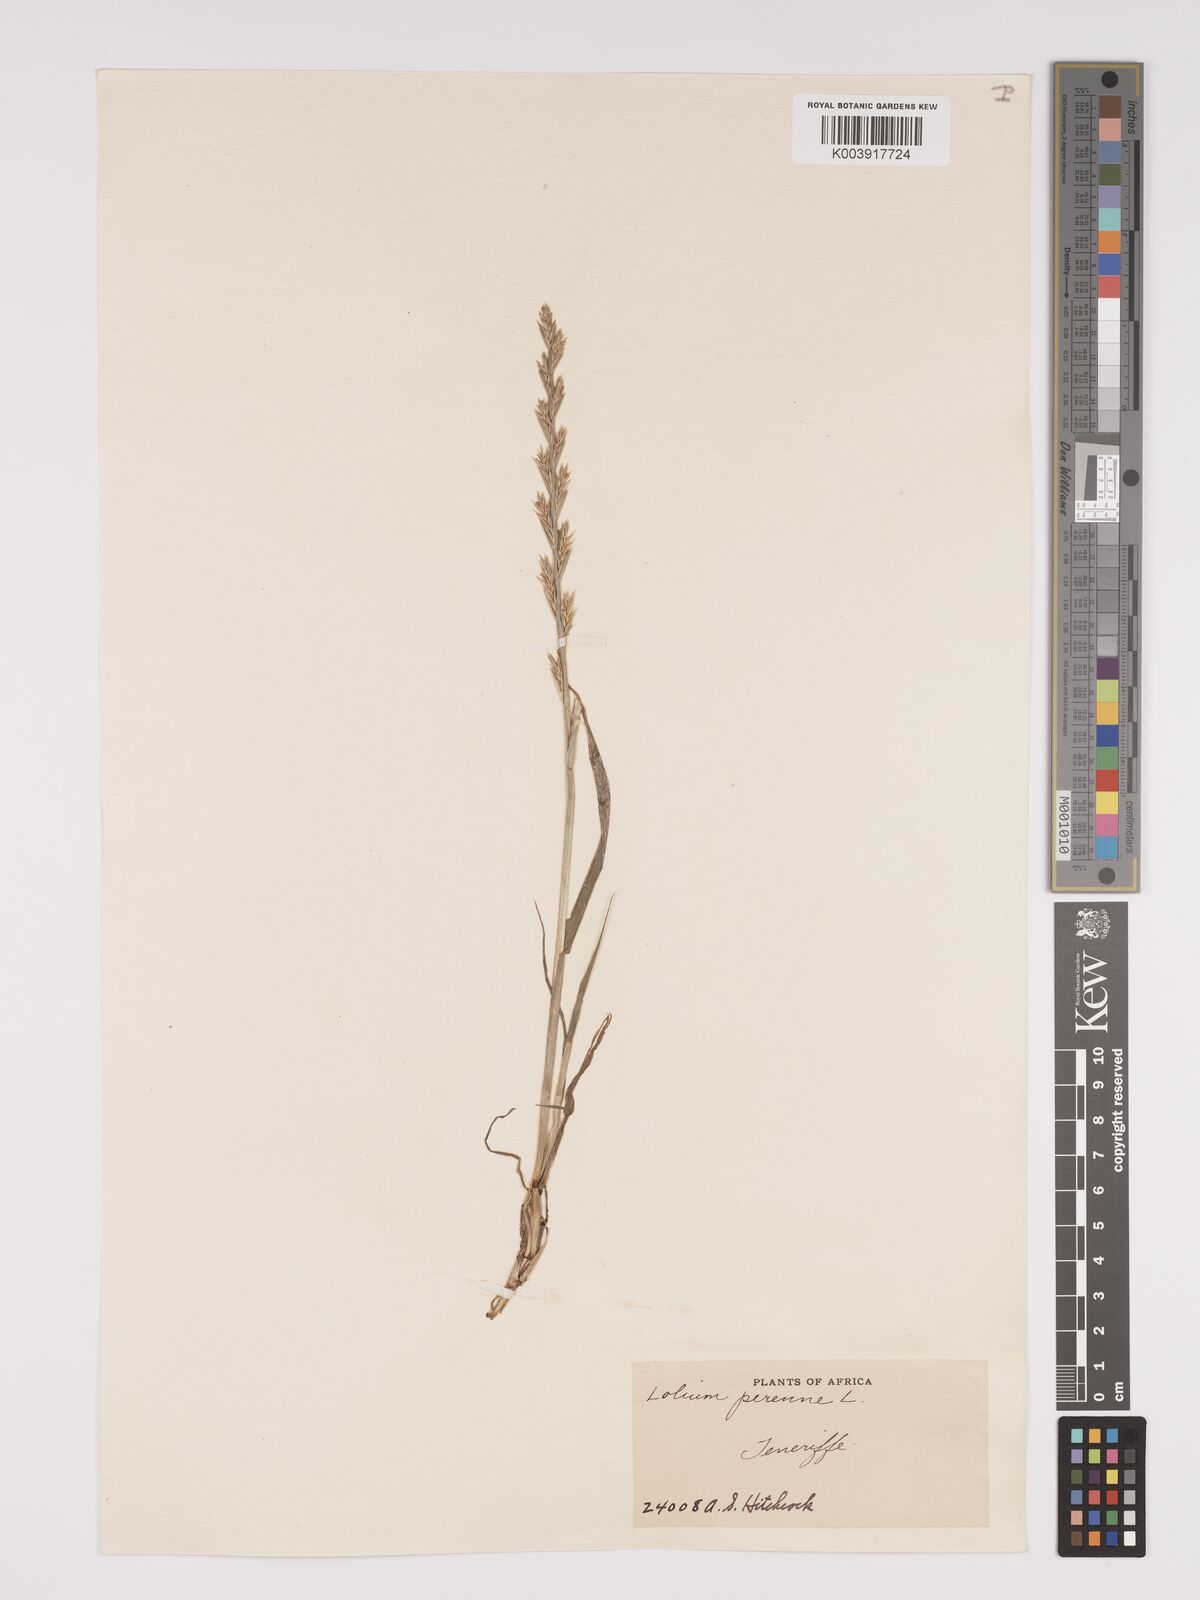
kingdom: Plantae
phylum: Tracheophyta
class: Liliopsida
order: Poales
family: Poaceae
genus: Lolium
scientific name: Lolium perenne
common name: Perennial ryegrass
